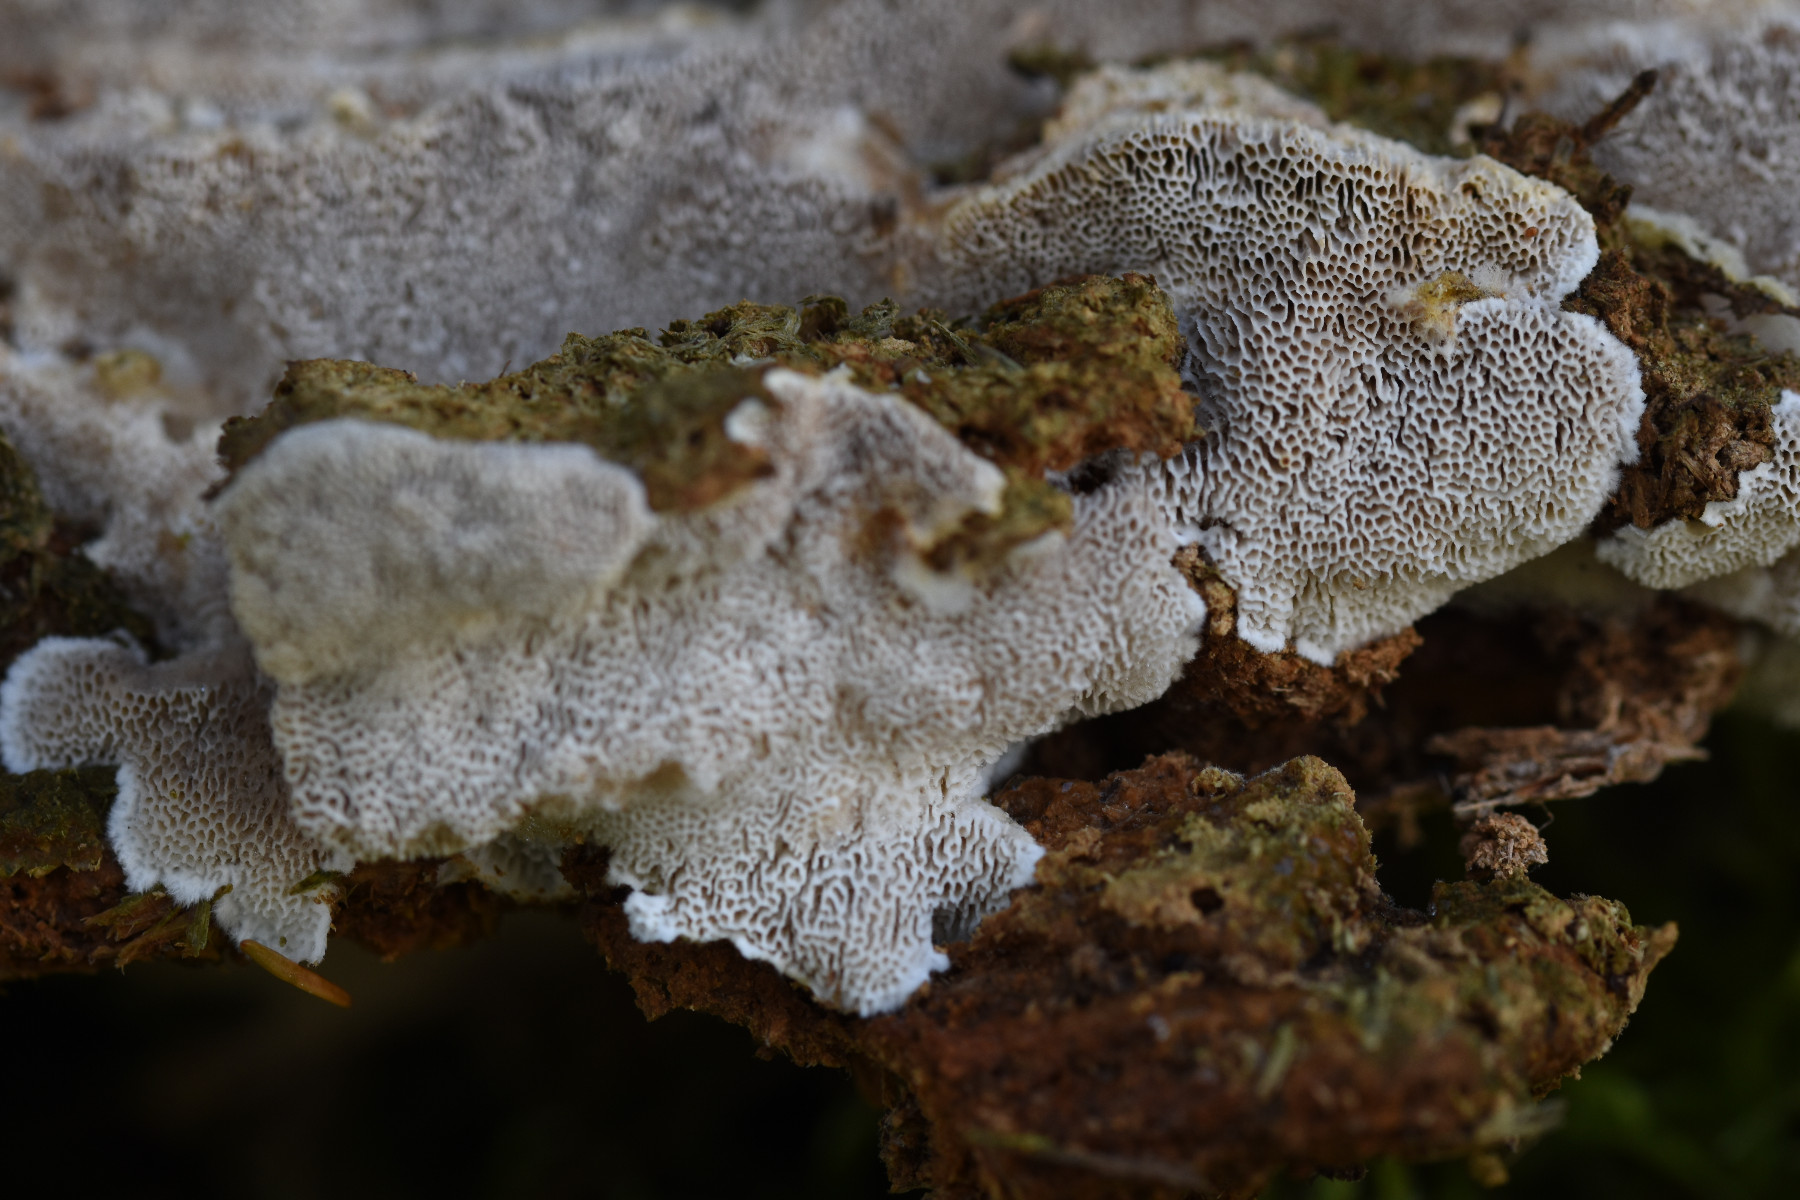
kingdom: Fungi
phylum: Basidiomycota
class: Agaricomycetes
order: Polyporales
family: Gelatoporiaceae
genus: Cinereomyces
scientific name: Cinereomyces lindbladii
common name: almindelig gråporesvamp
